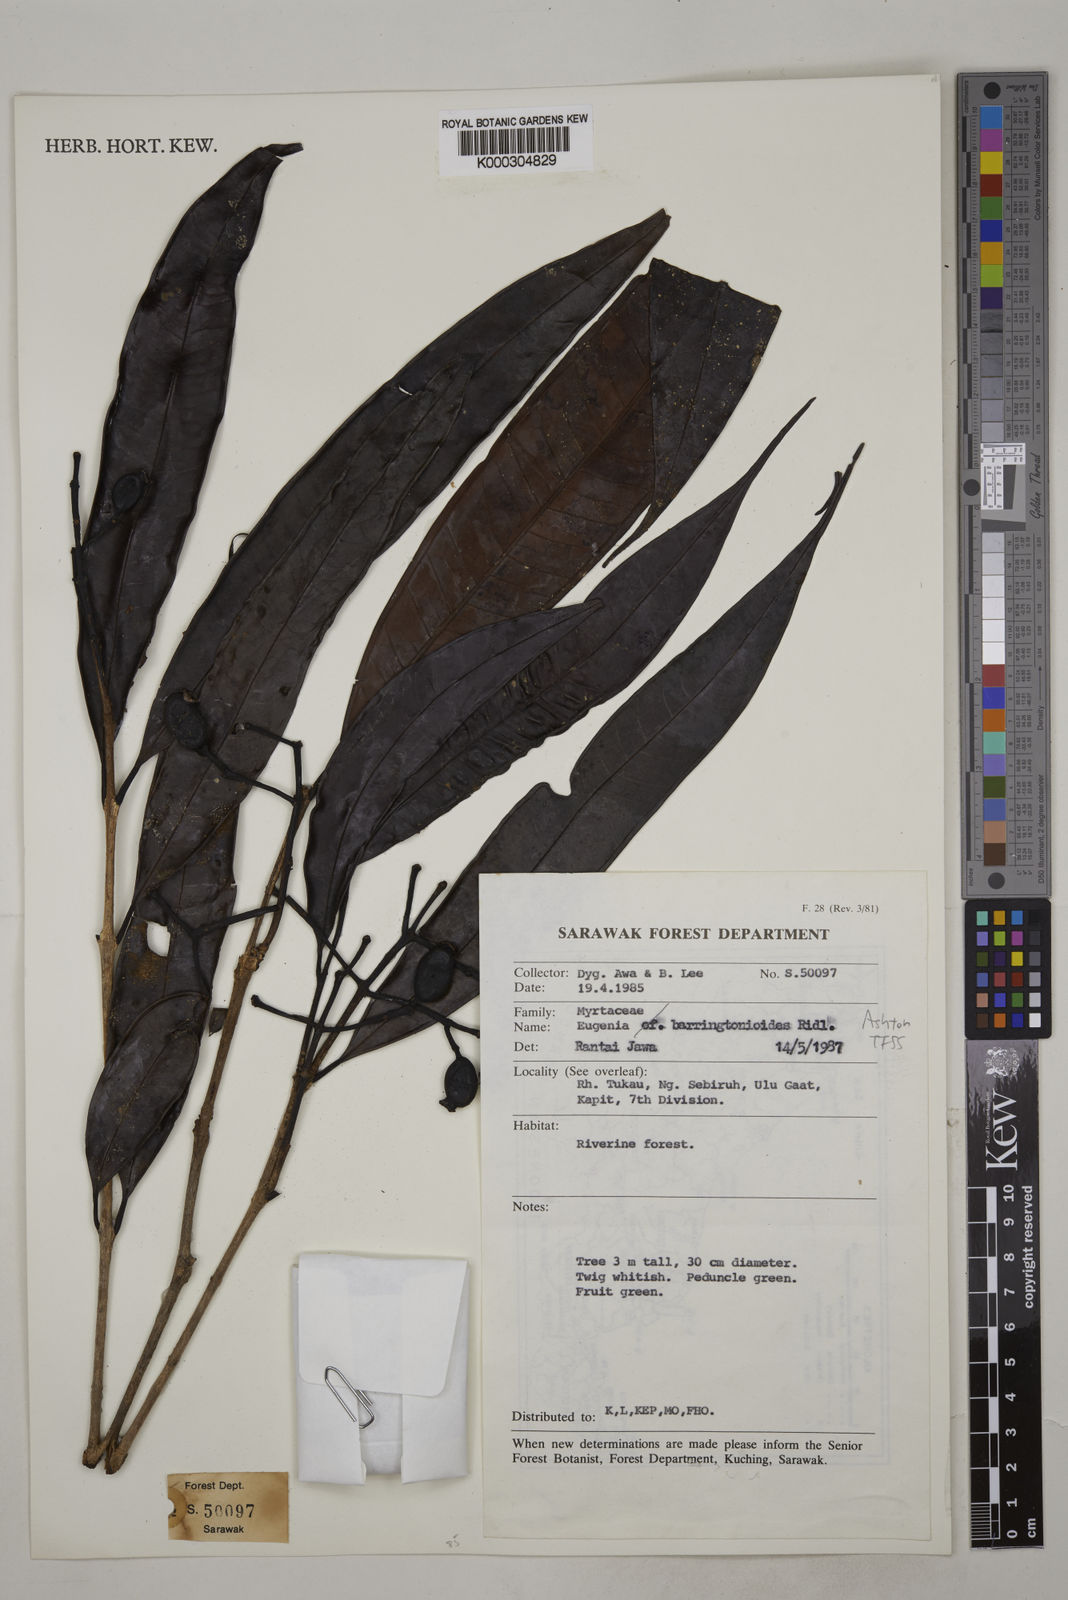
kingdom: Plantae
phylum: Tracheophyta
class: Magnoliopsida
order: Myrtales
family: Myrtaceae
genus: Syzygium
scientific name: Syzygium
